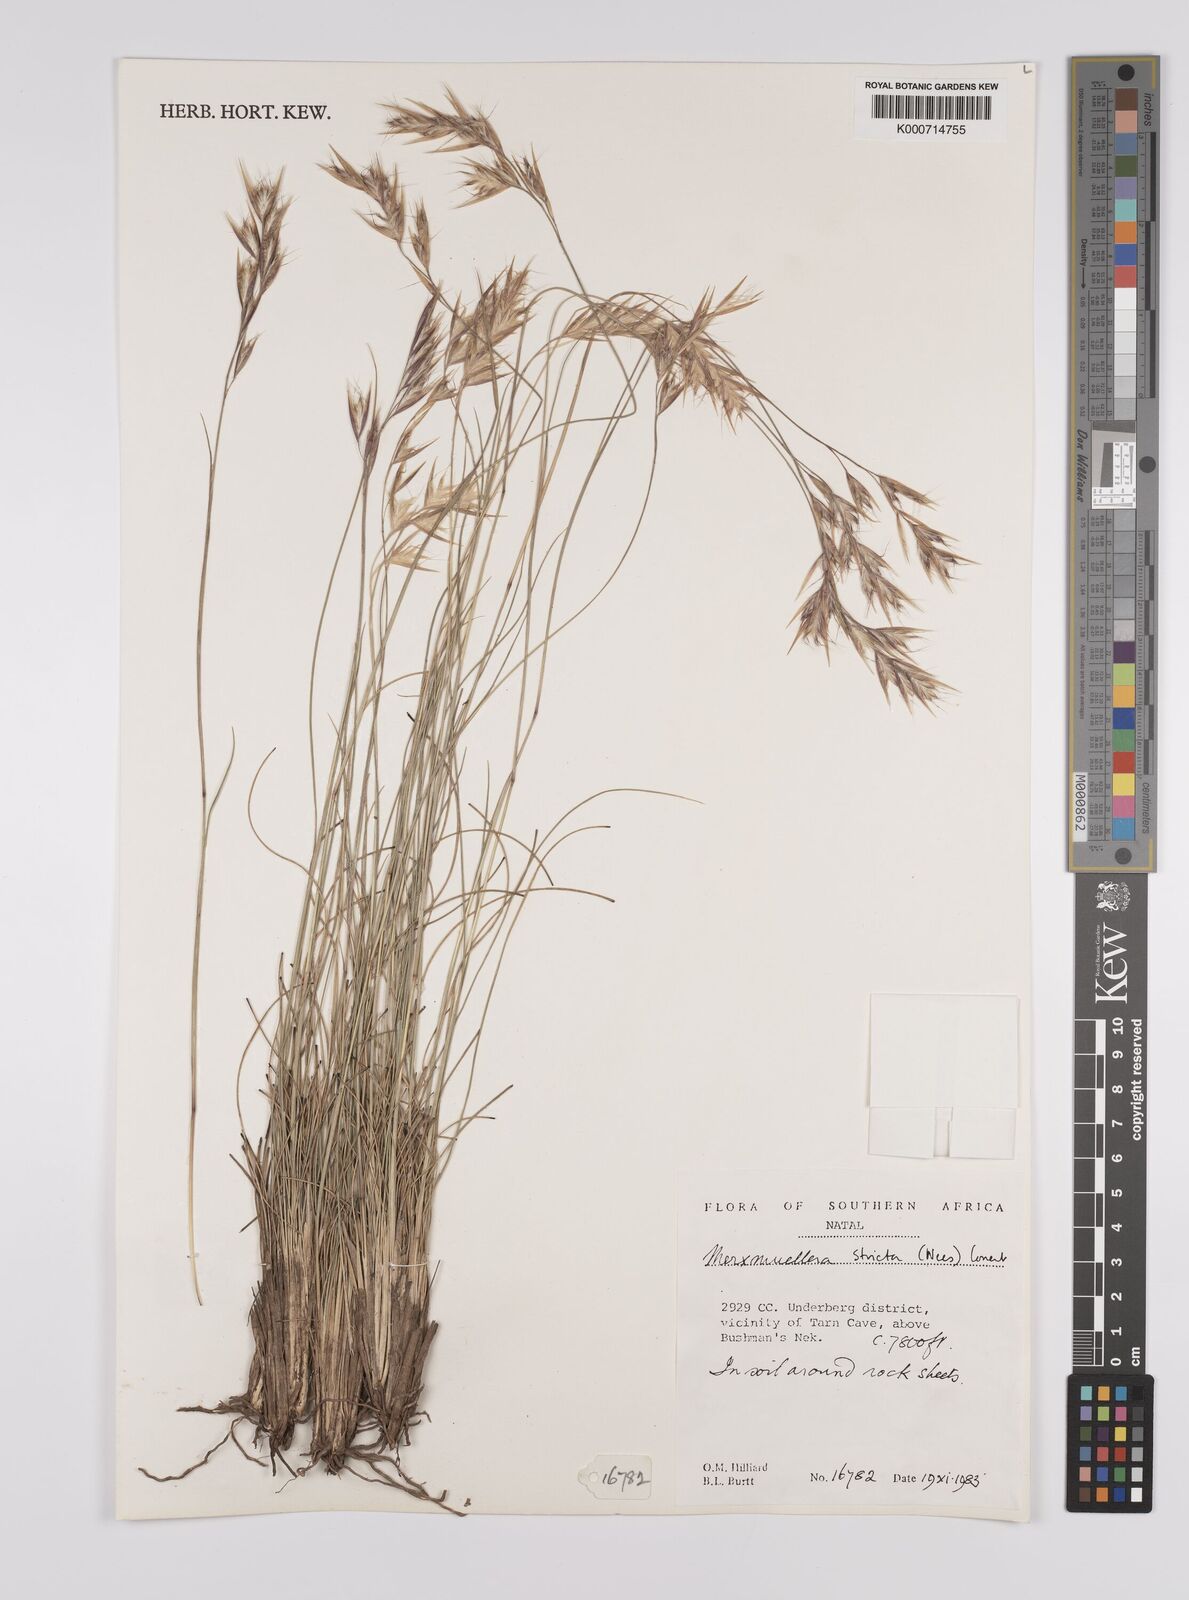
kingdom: Plantae
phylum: Tracheophyta
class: Liliopsida
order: Poales
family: Poaceae
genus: Rytidosperma
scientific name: Rytidosperma
